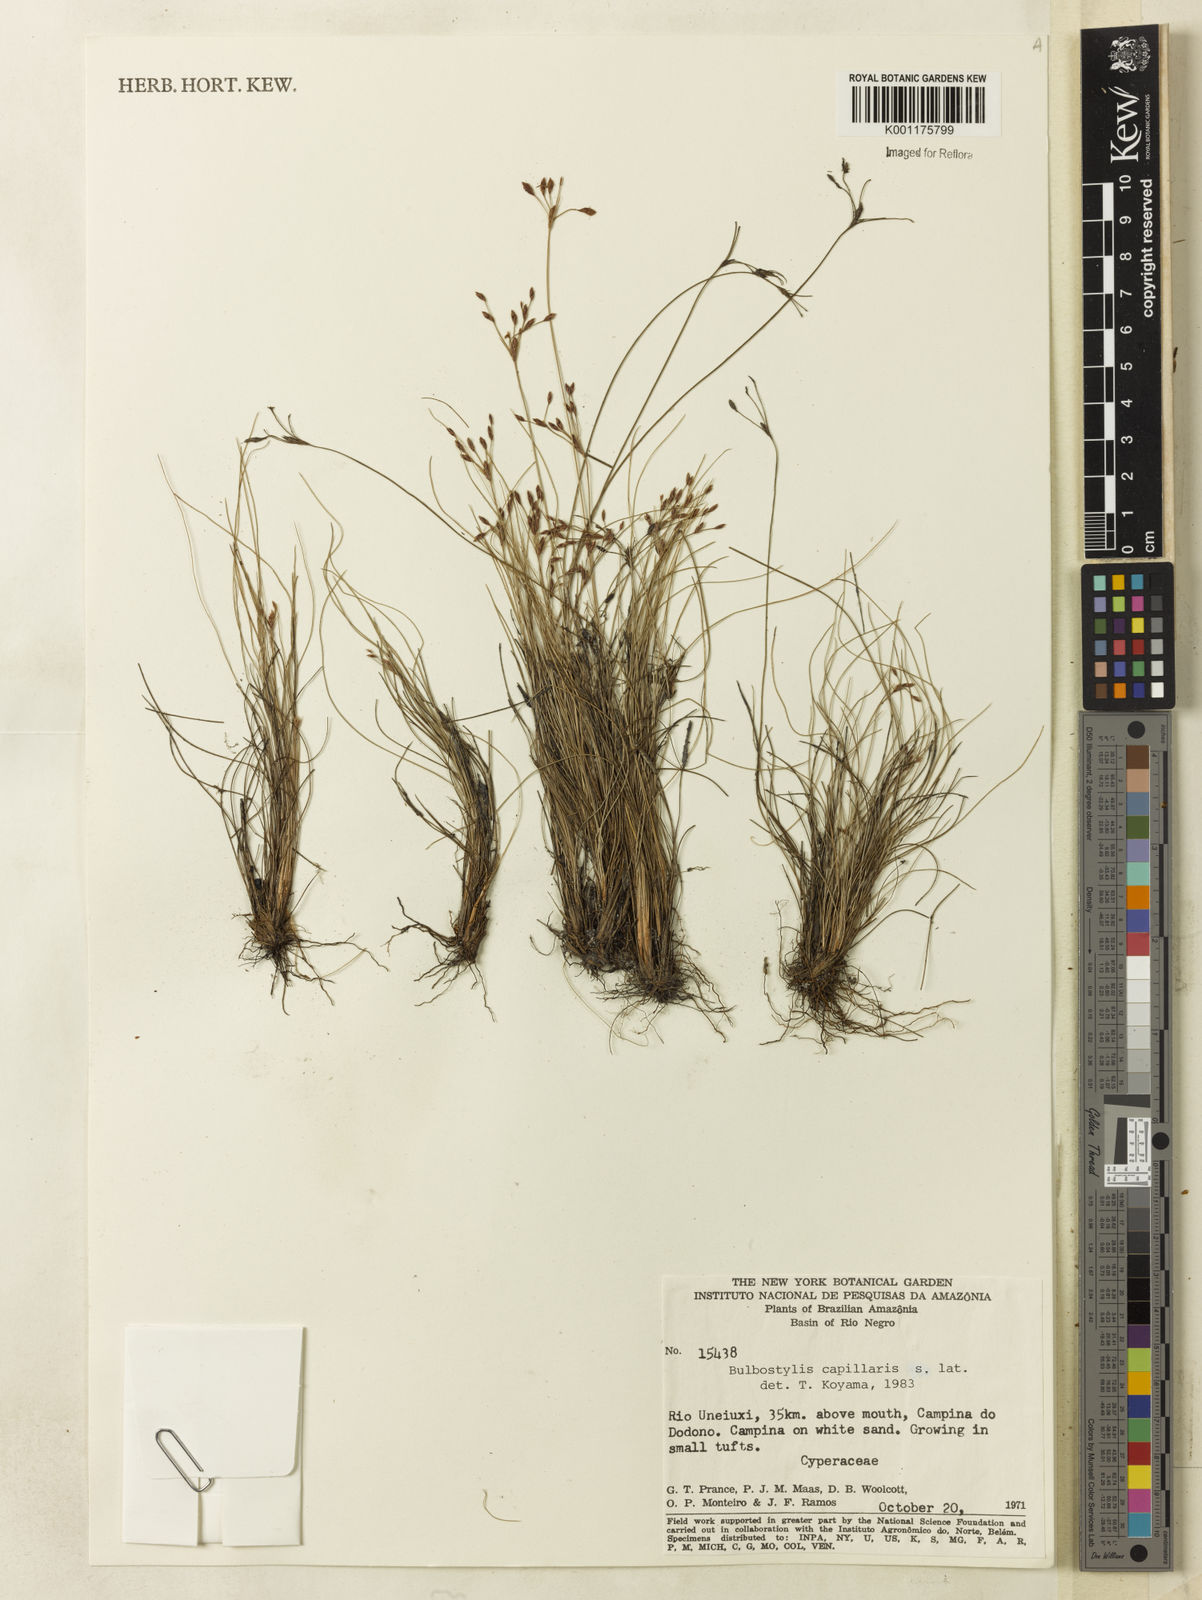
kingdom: Plantae
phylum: Tracheophyta
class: Liliopsida
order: Poales
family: Cyperaceae
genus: Bulbostylis
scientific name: Bulbostylis capillaris
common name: Densetuft hairsedge
